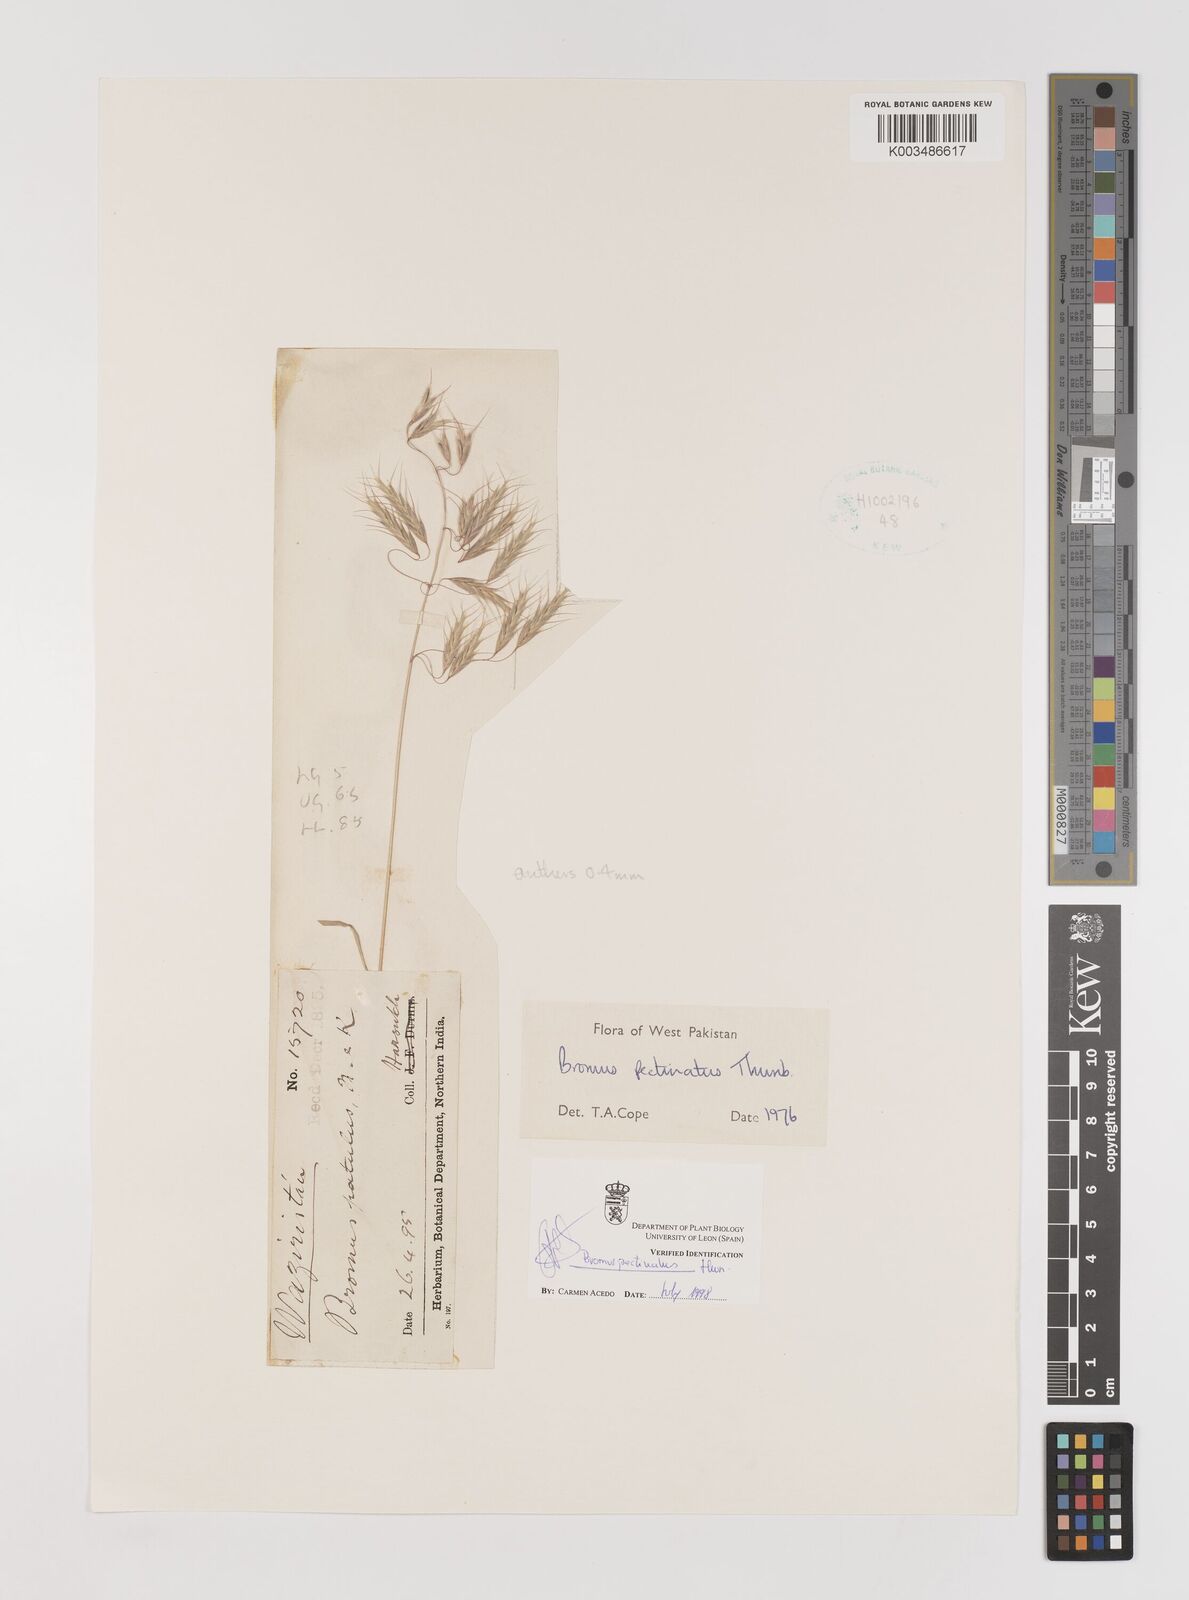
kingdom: Plantae
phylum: Tracheophyta
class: Liliopsida
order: Poales
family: Poaceae
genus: Bromus
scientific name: Bromus pectinatus
